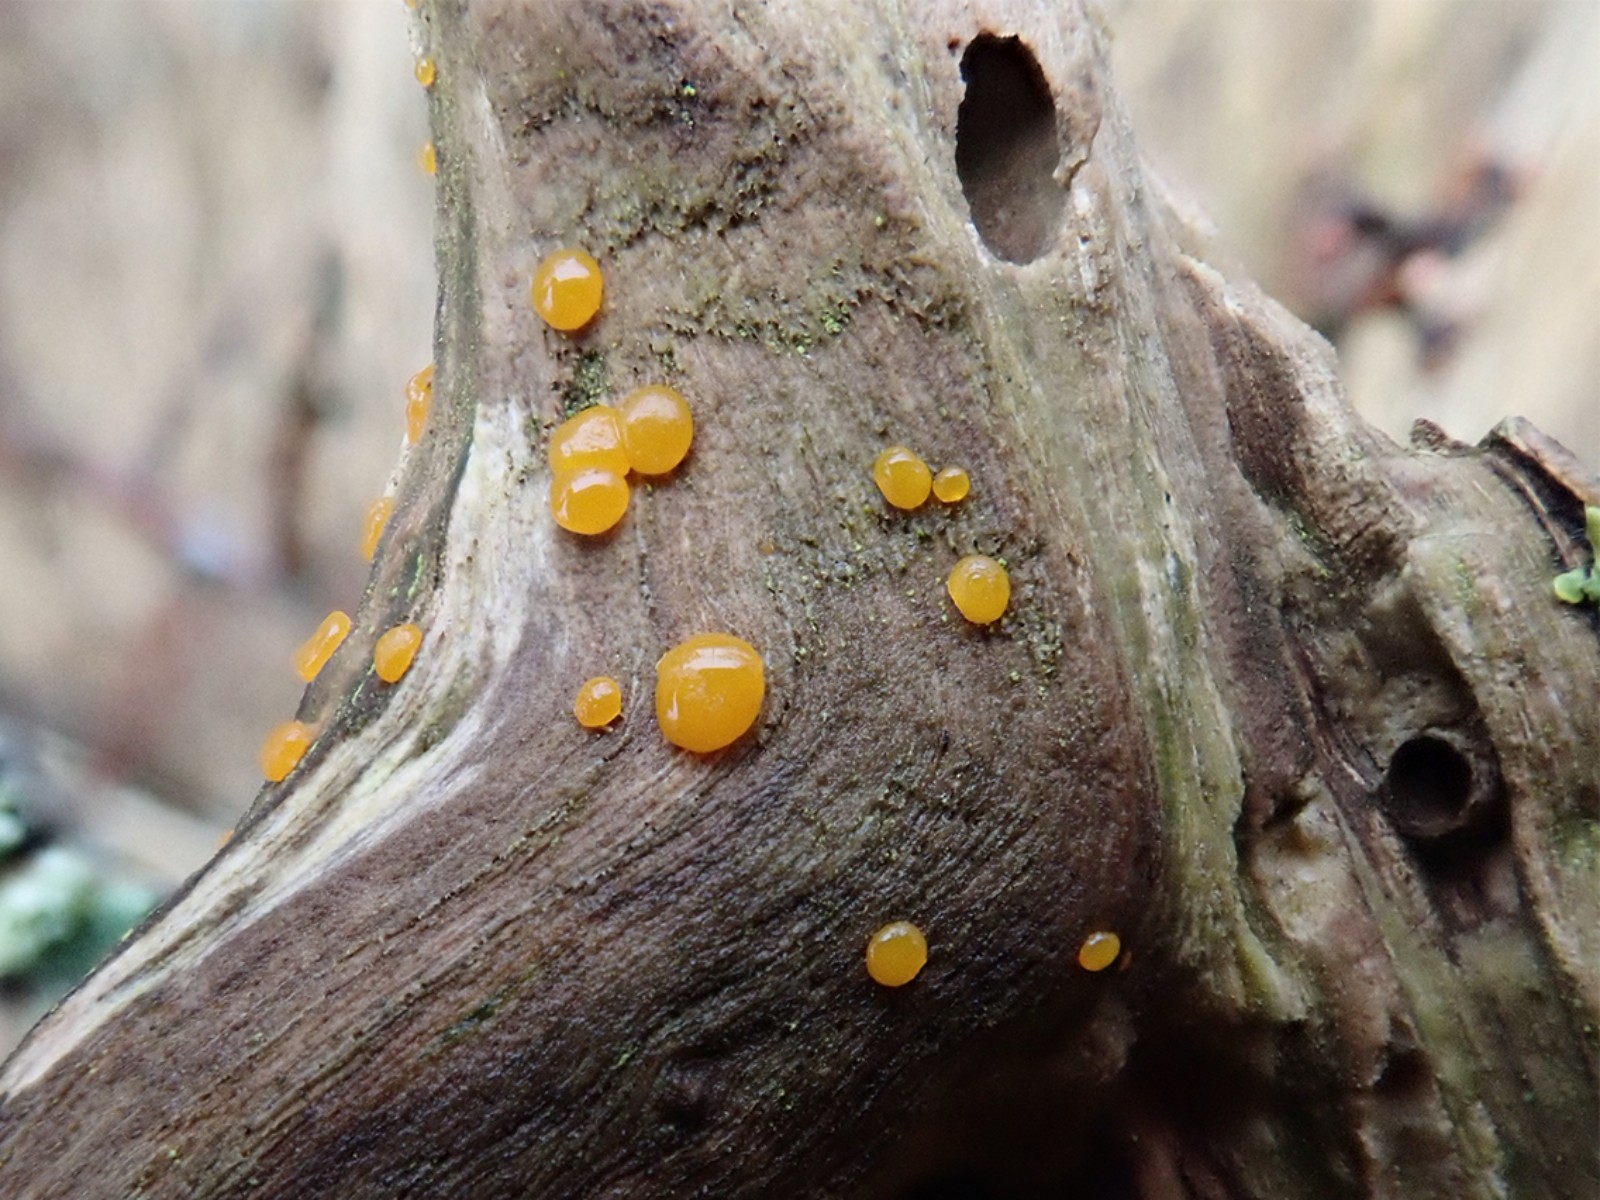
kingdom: Fungi
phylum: Basidiomycota
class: Dacrymycetes
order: Dacrymycetales
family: Dacrymycetaceae
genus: Dacrymyces
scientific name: Dacrymyces
